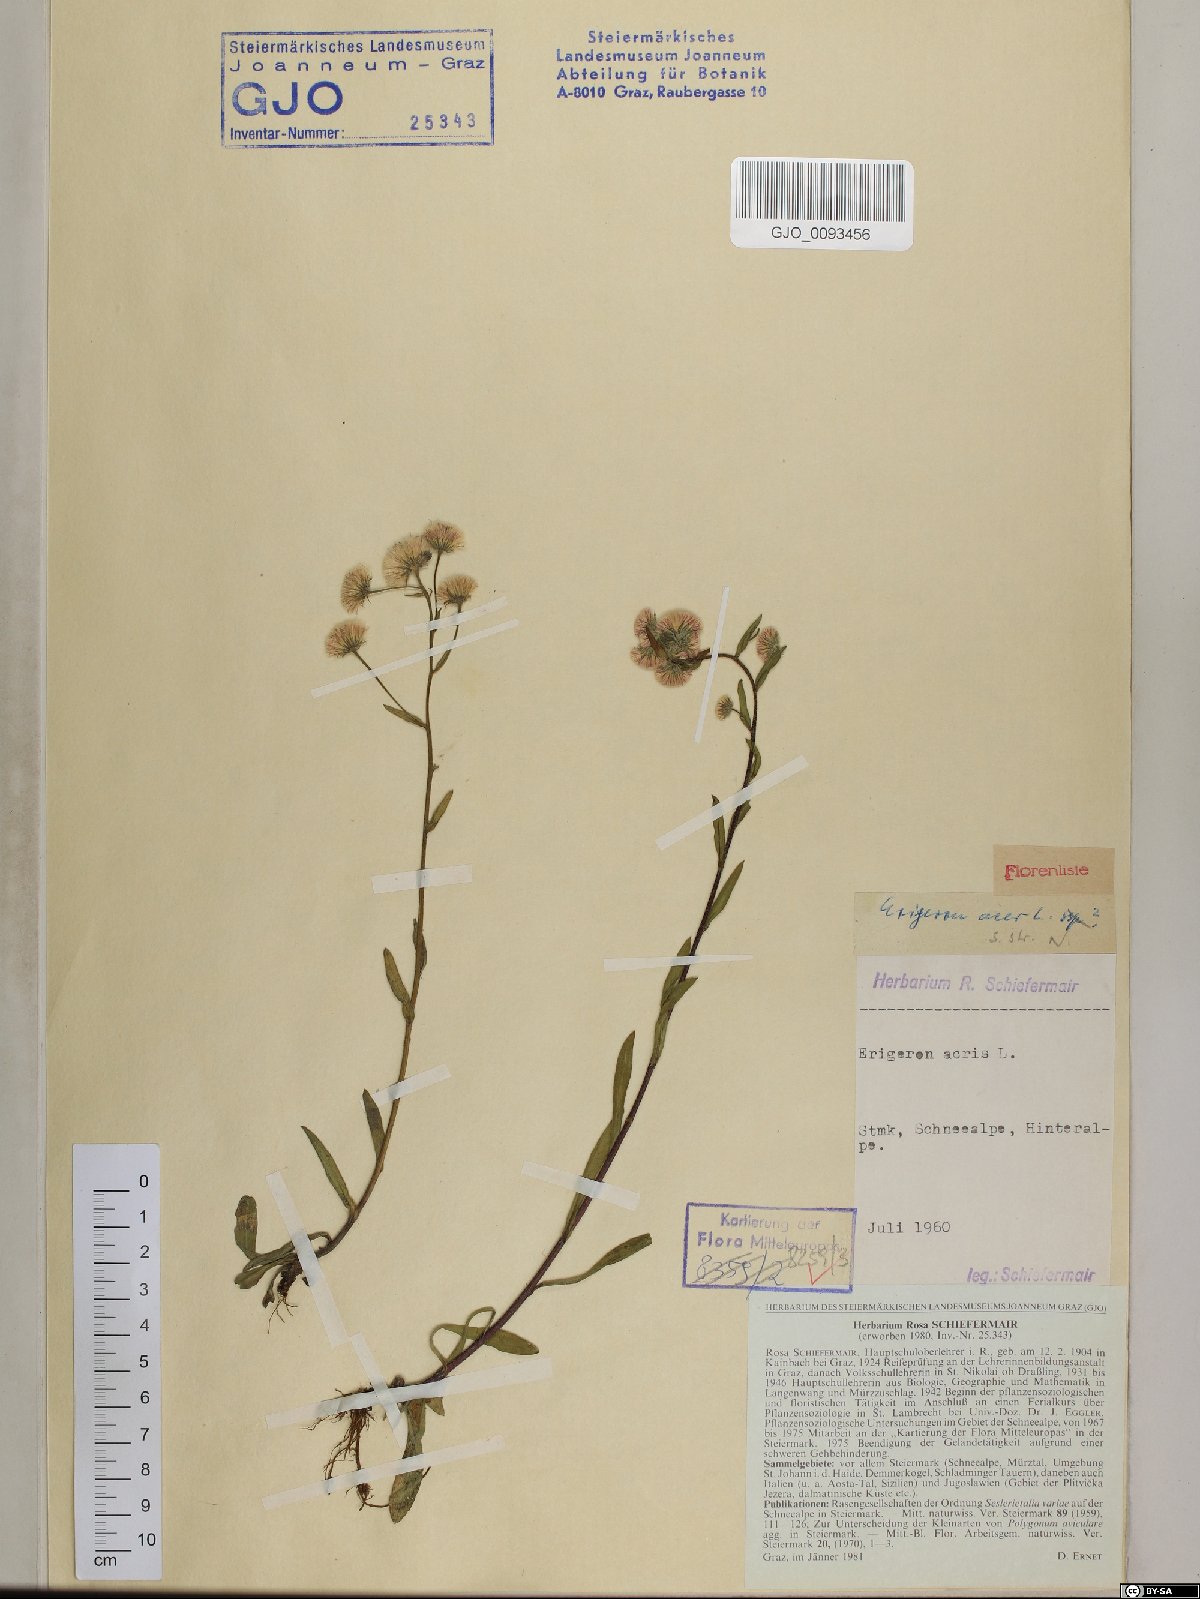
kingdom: Plantae
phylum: Tracheophyta
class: Magnoliopsida
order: Asterales
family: Asteraceae
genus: Erigeron
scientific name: Erigeron acris
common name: Blue fleabane
